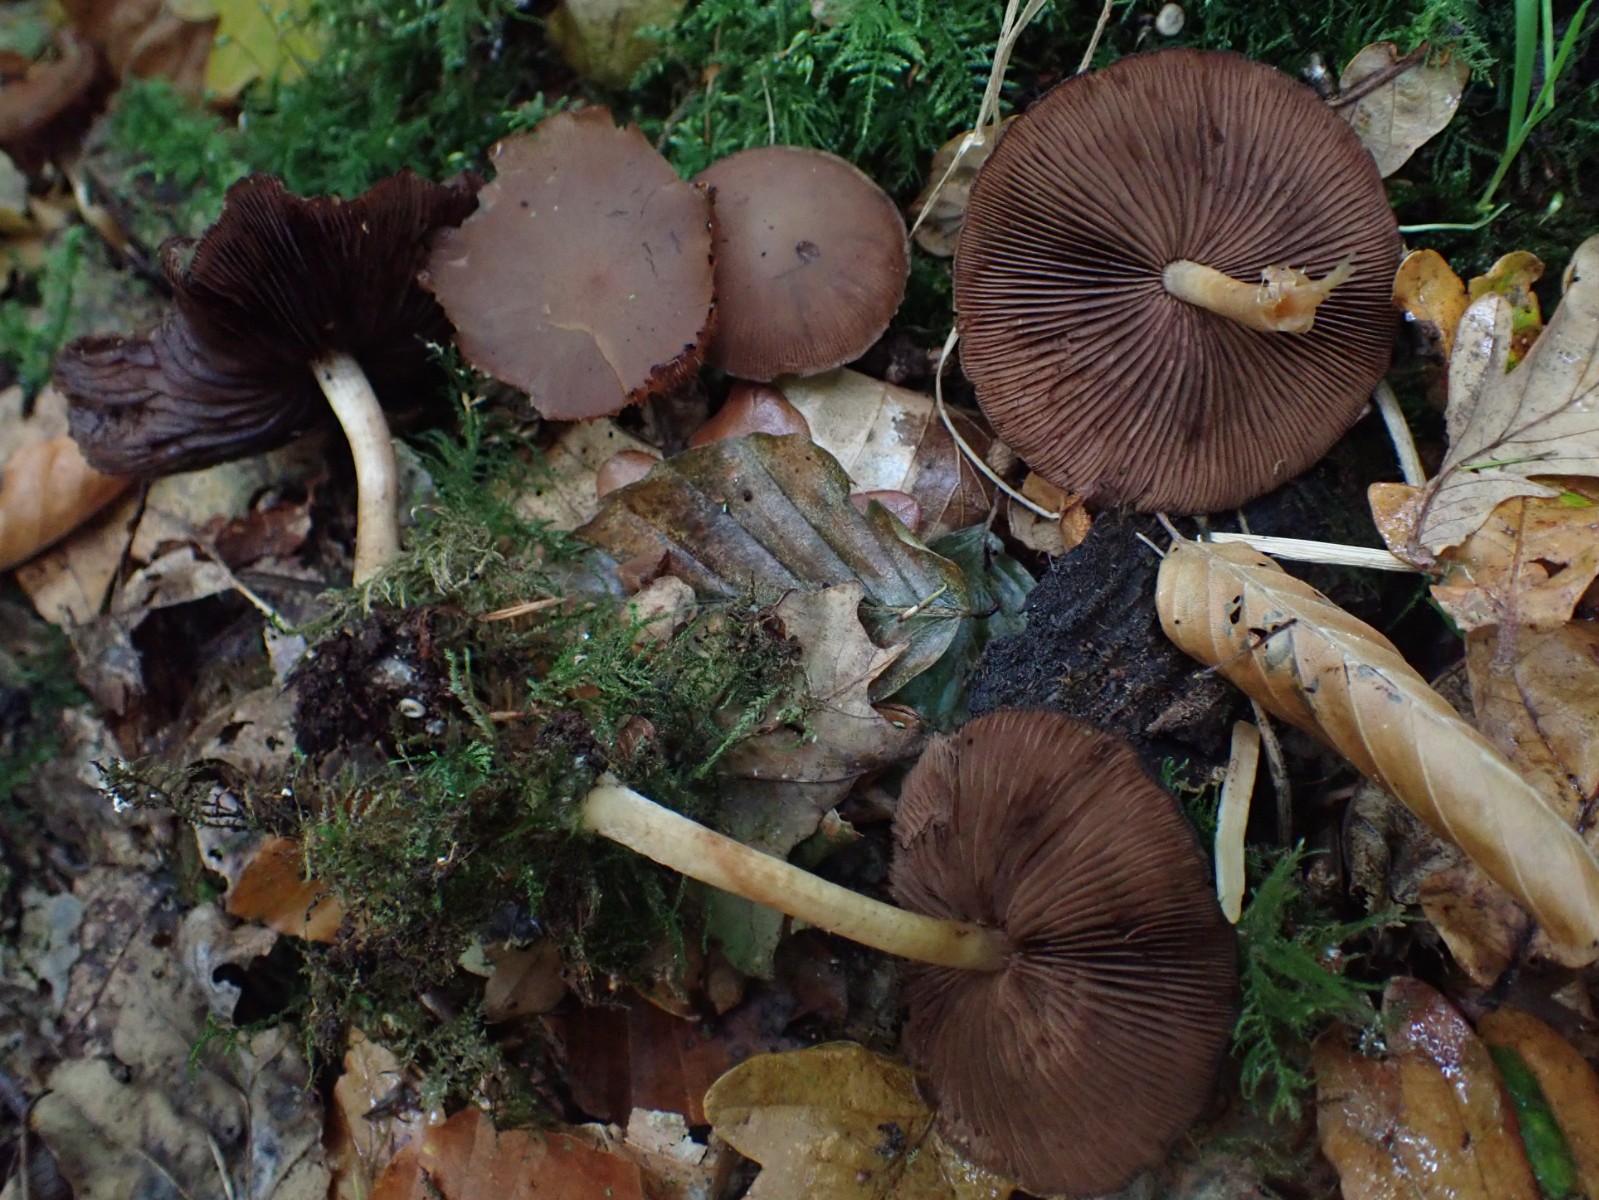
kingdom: Fungi
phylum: Basidiomycota
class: Agaricomycetes
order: Agaricales
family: Psathyrellaceae
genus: Psathyrella
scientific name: Psathyrella piluliformis
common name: lysstokket mørkhat
